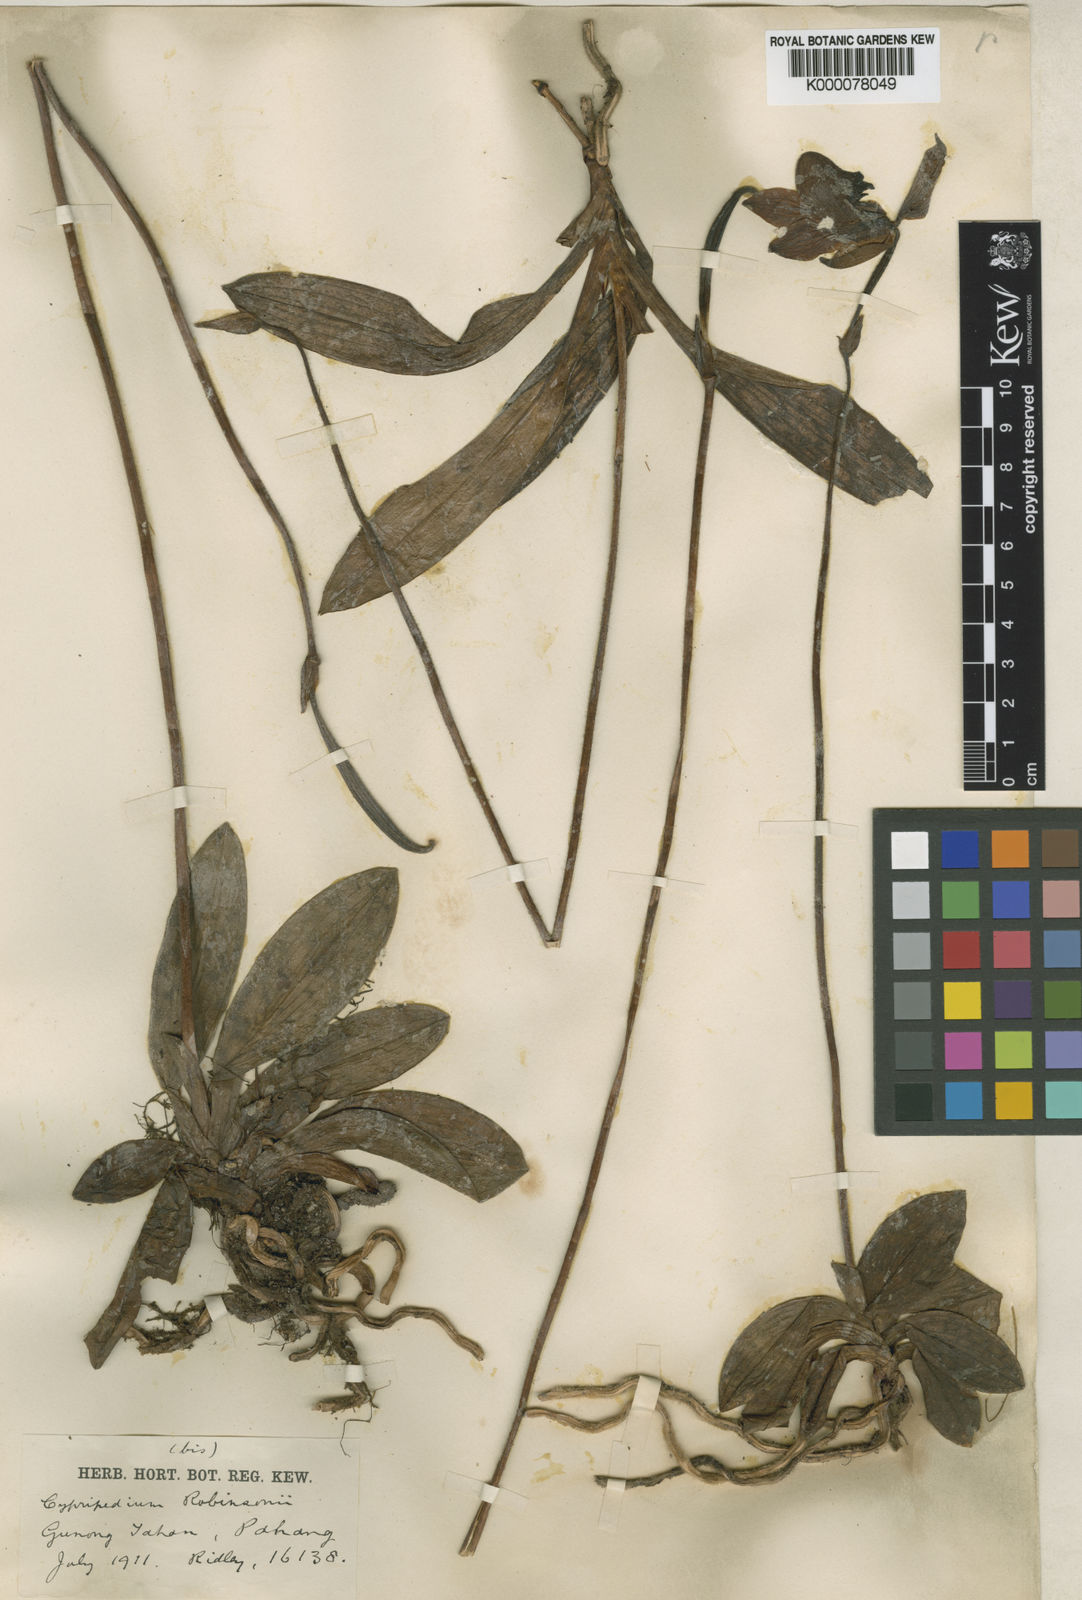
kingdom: Plantae
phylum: Tracheophyta
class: Liliopsida
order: Asparagales
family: Orchidaceae
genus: Paphiopedilum
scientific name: Paphiopedilum bullenianum
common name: Bullen's paphiopedilum
